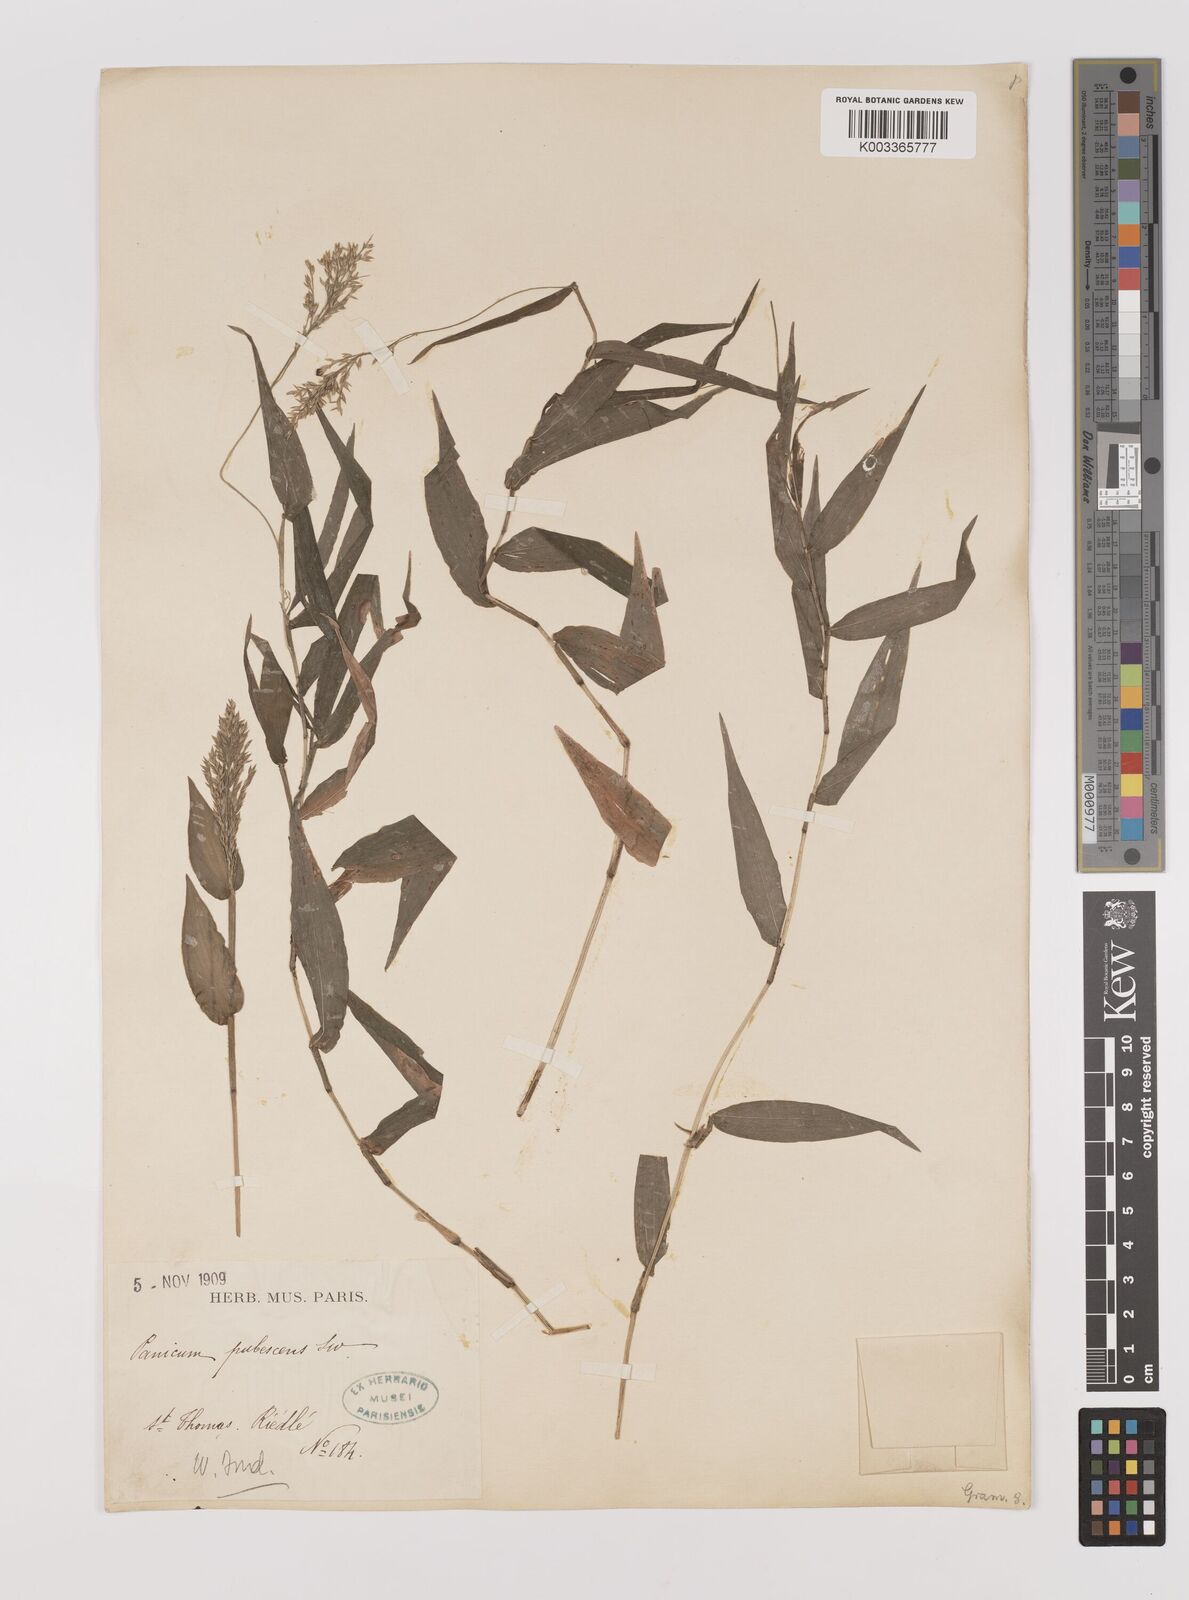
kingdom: Plantae
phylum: Tracheophyta
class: Liliopsida
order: Poales
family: Poaceae
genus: Ichnanthus
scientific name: Ichnanthus pallens
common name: Water grass
